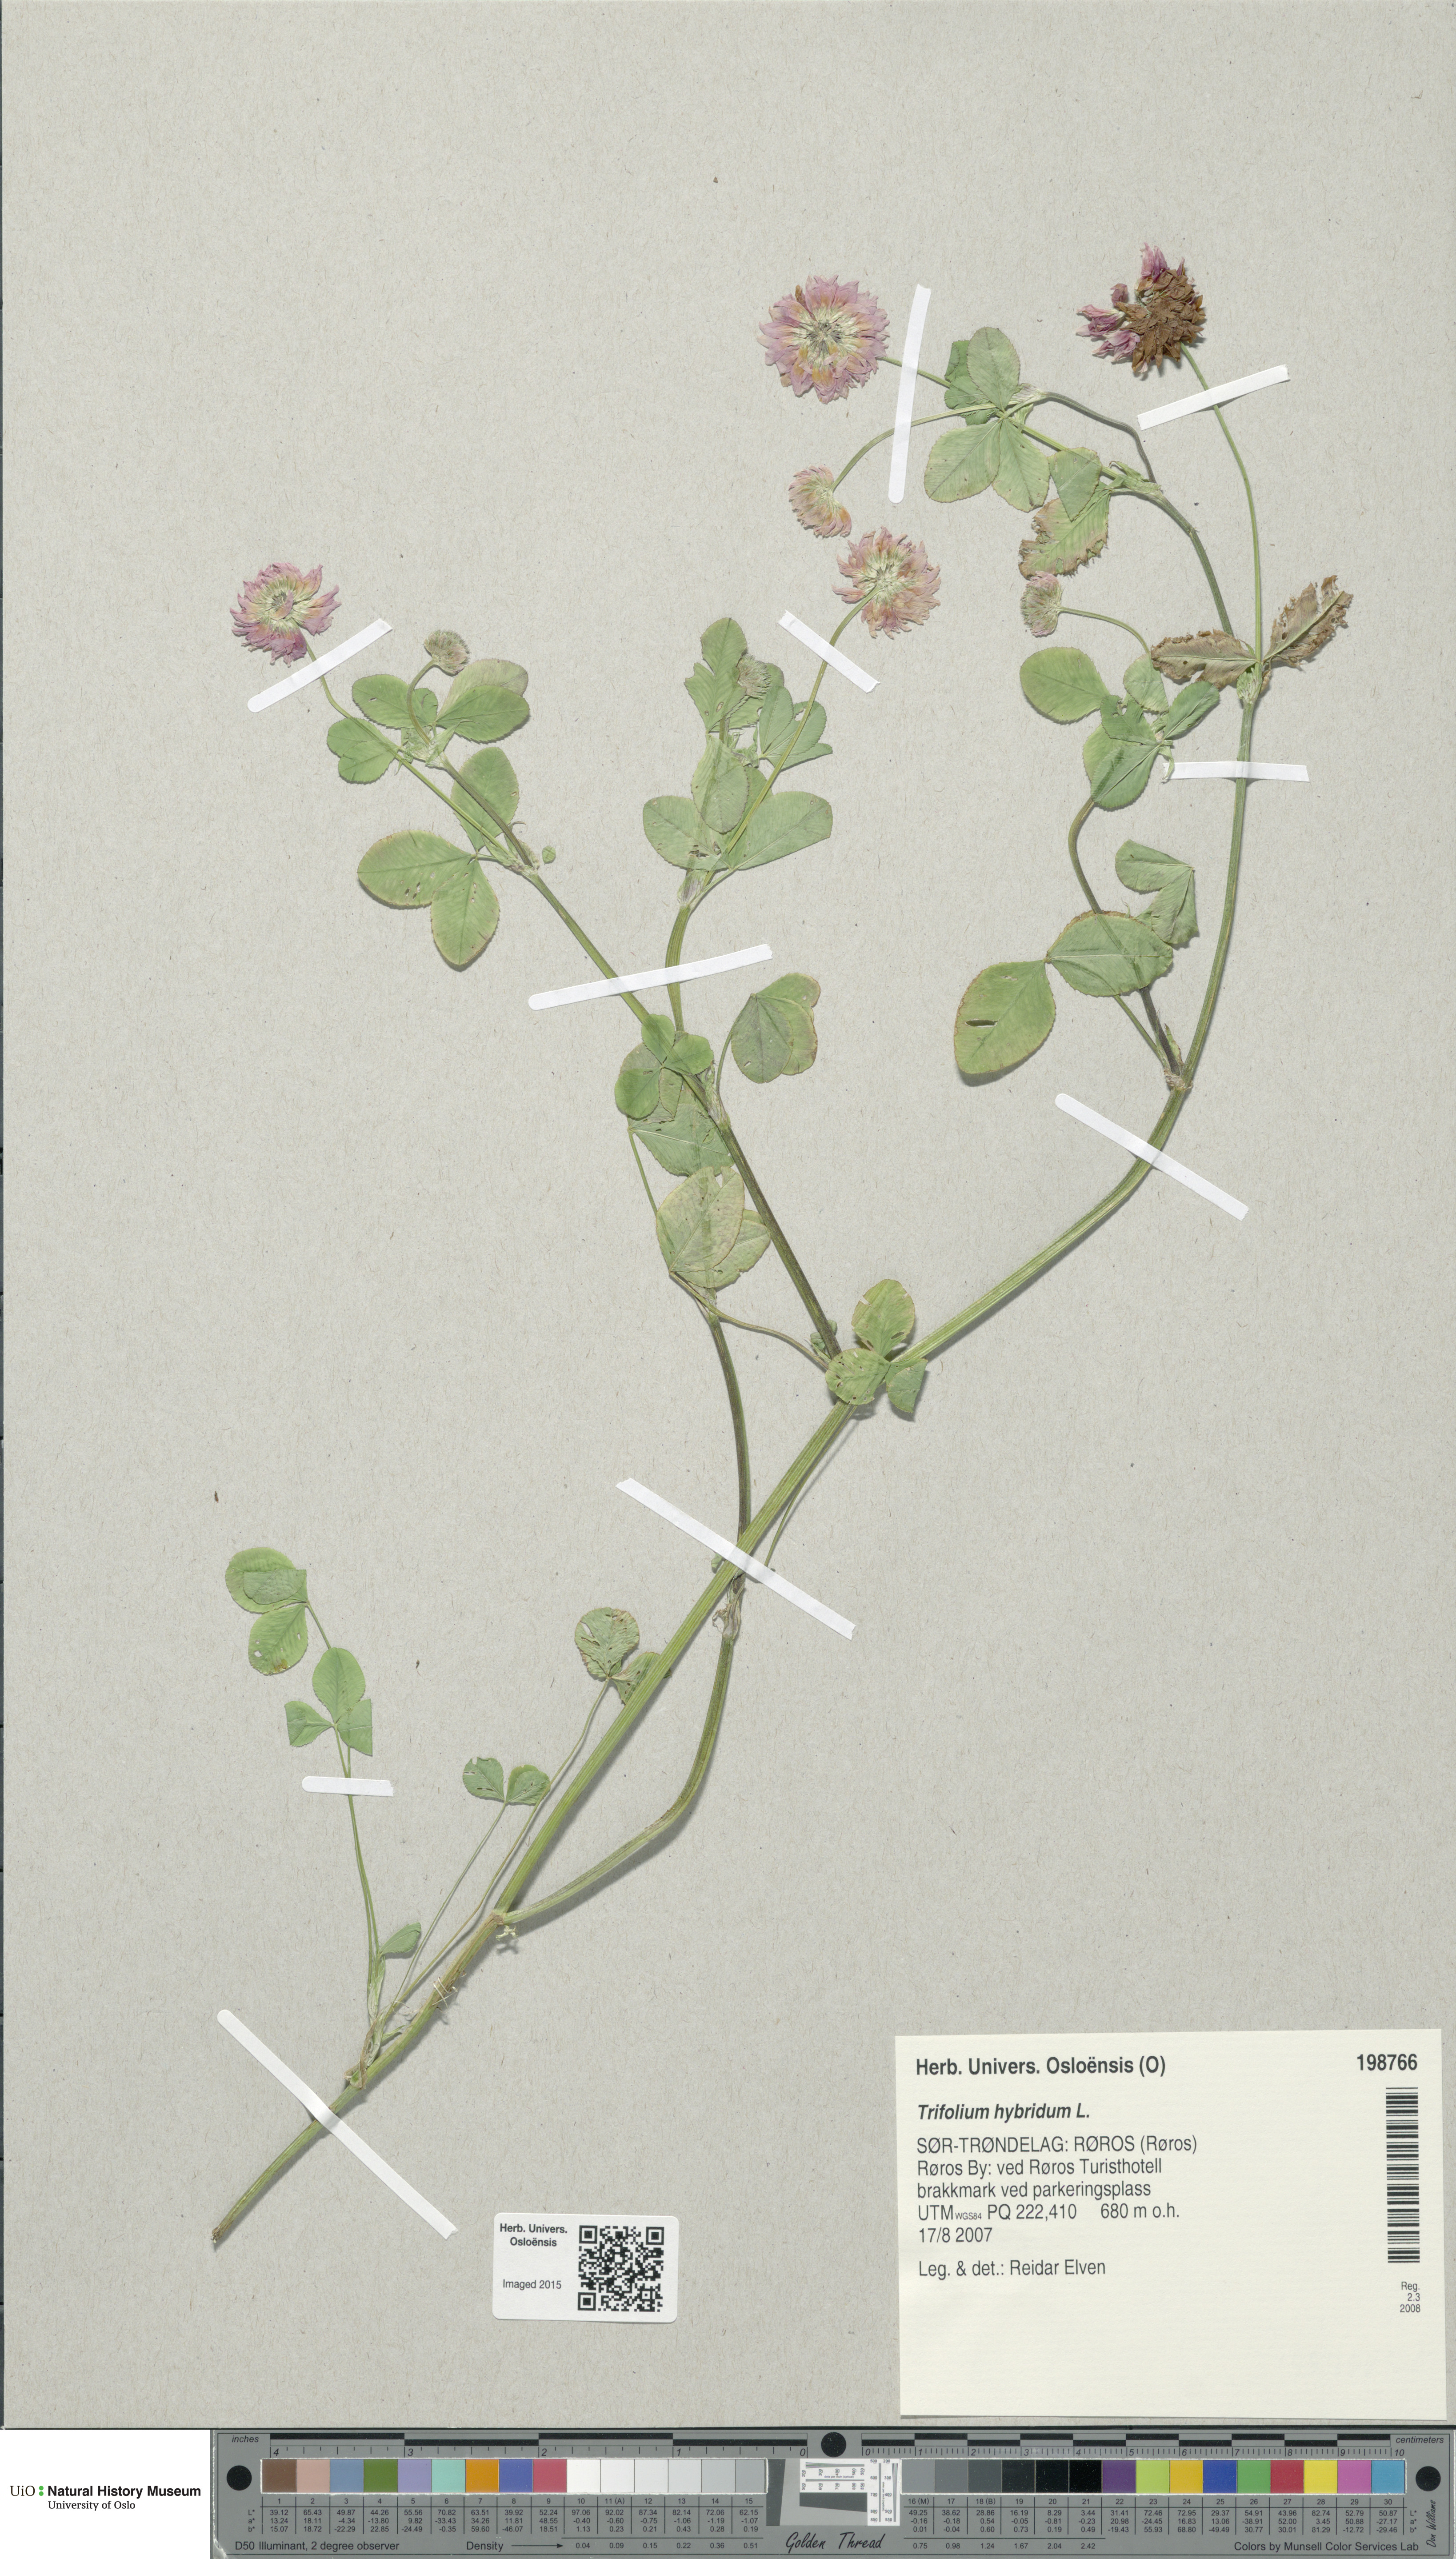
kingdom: Plantae
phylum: Tracheophyta
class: Magnoliopsida
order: Fabales
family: Fabaceae
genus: Trifolium
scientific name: Trifolium hybridum
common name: Alsike clover
